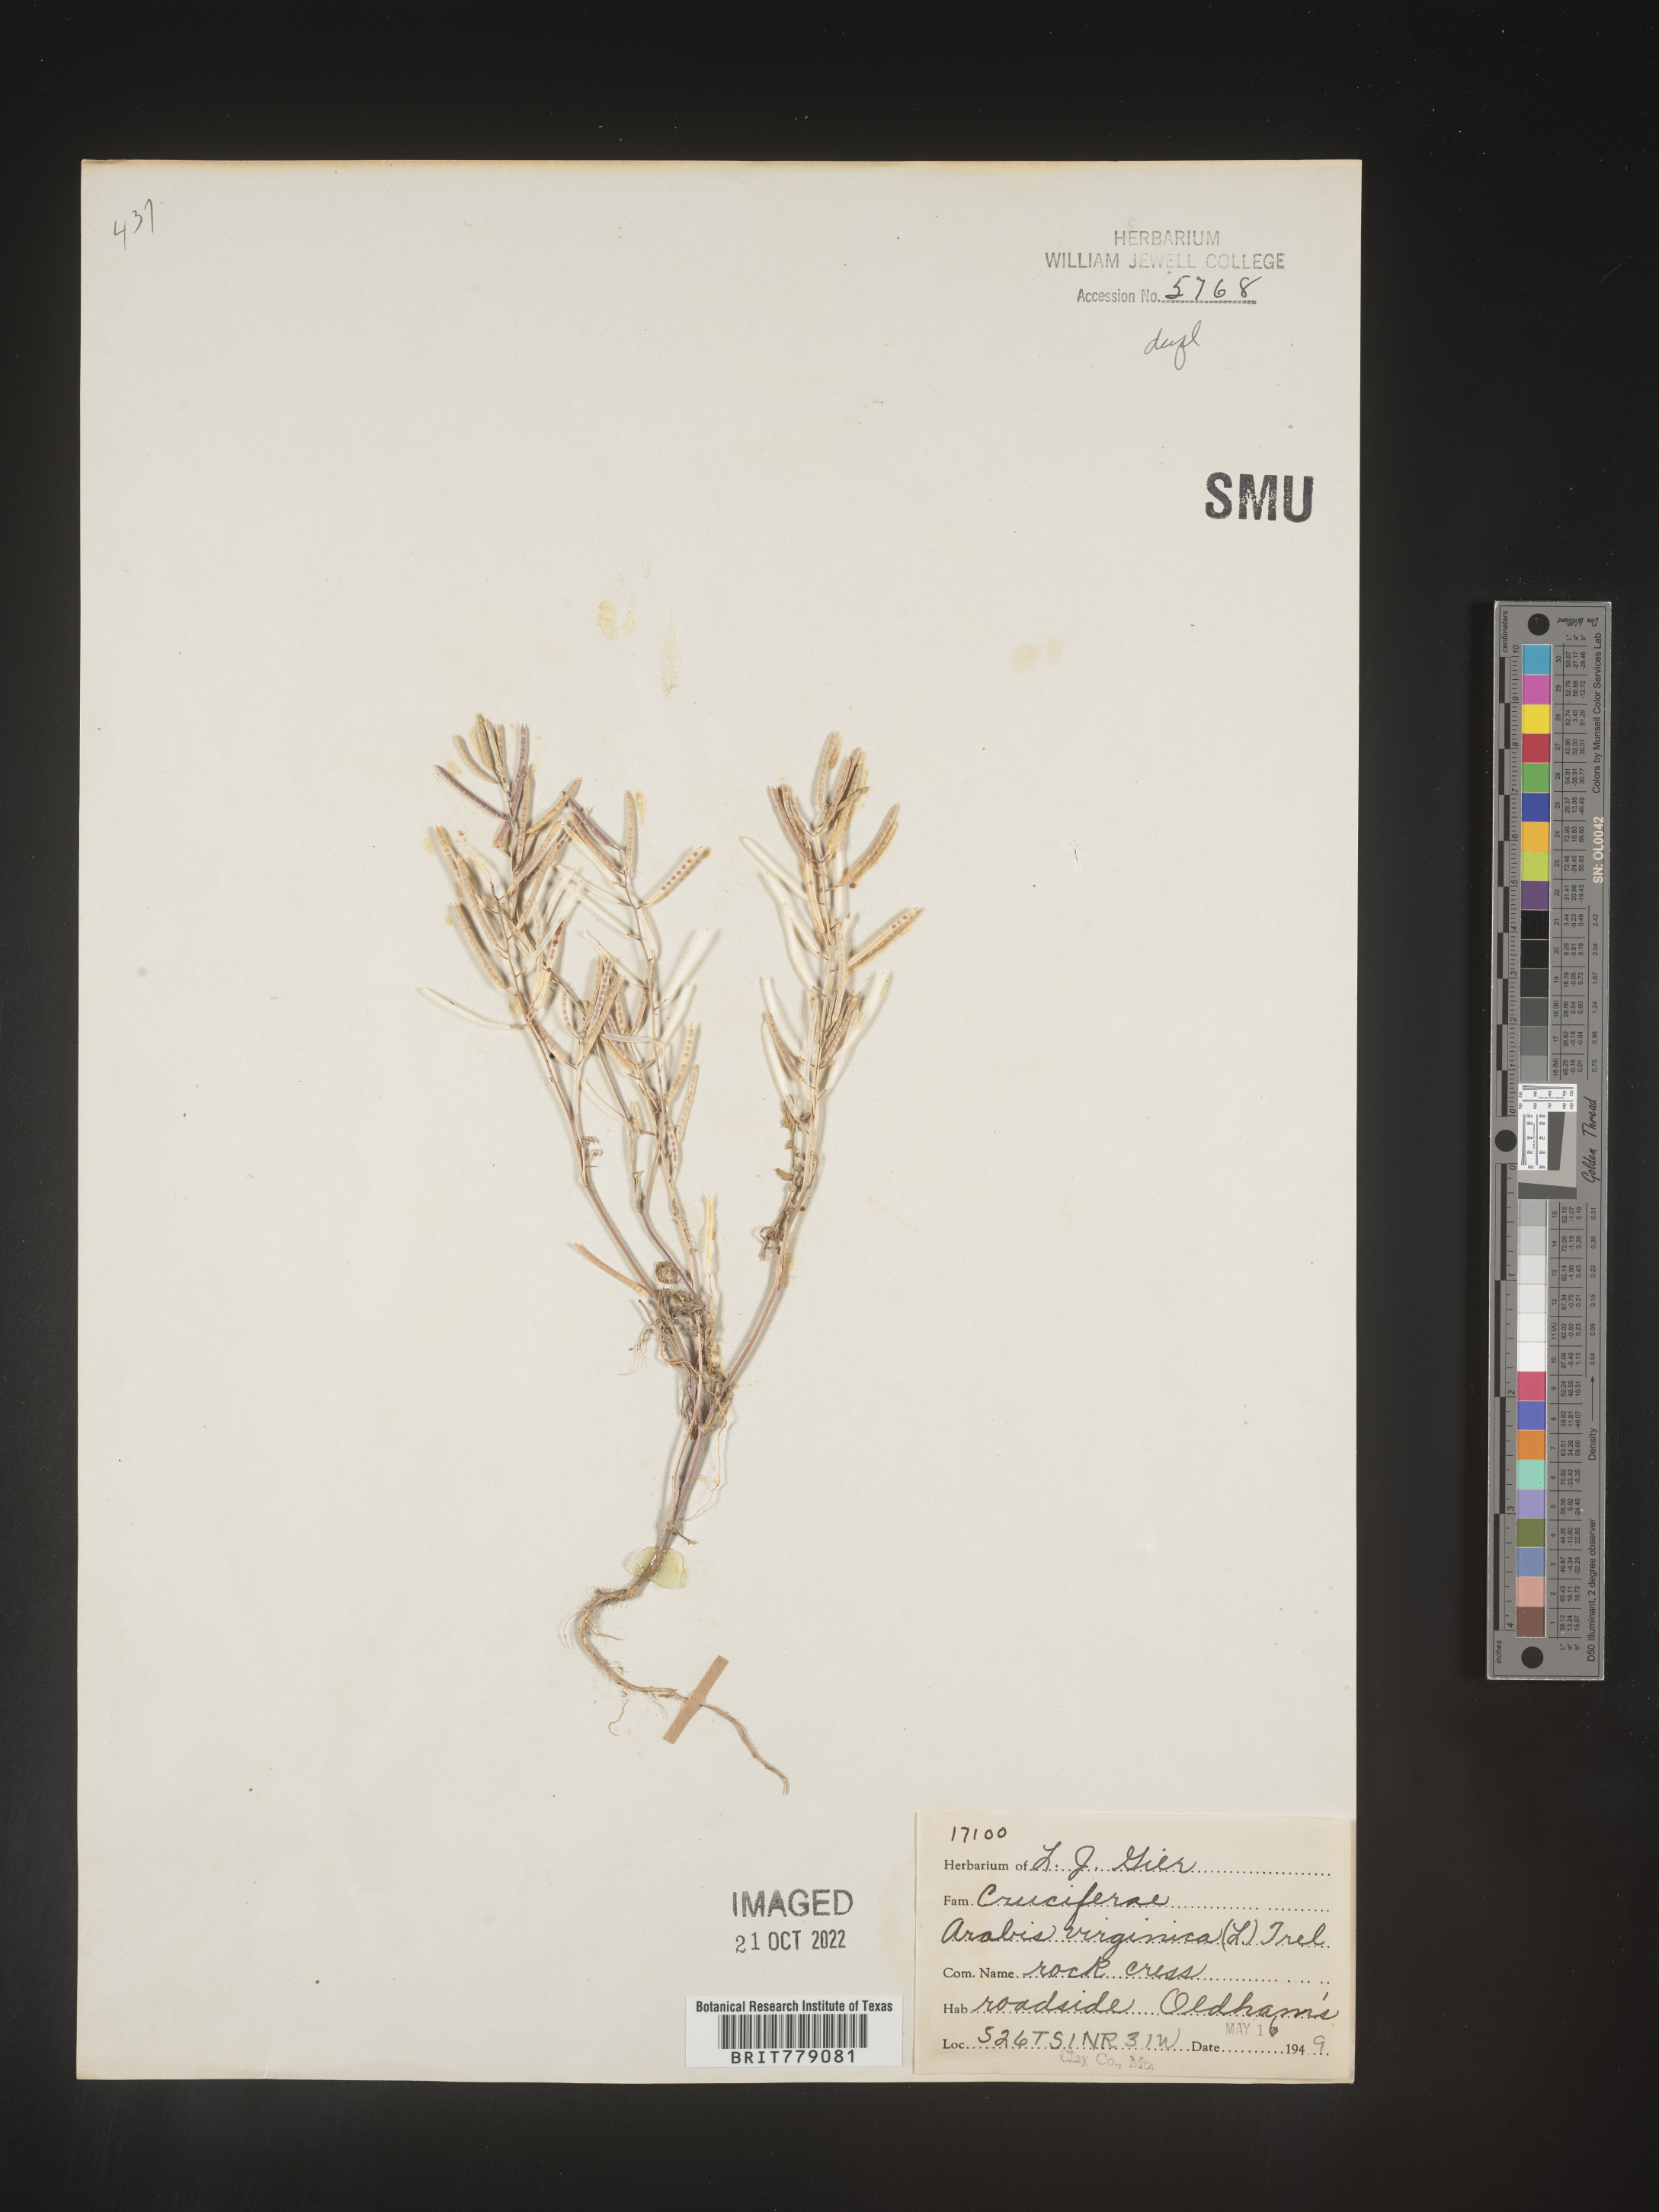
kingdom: Plantae
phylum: Tracheophyta
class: Magnoliopsida
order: Brassicales
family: Brassicaceae
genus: Sibara
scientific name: Sibara
